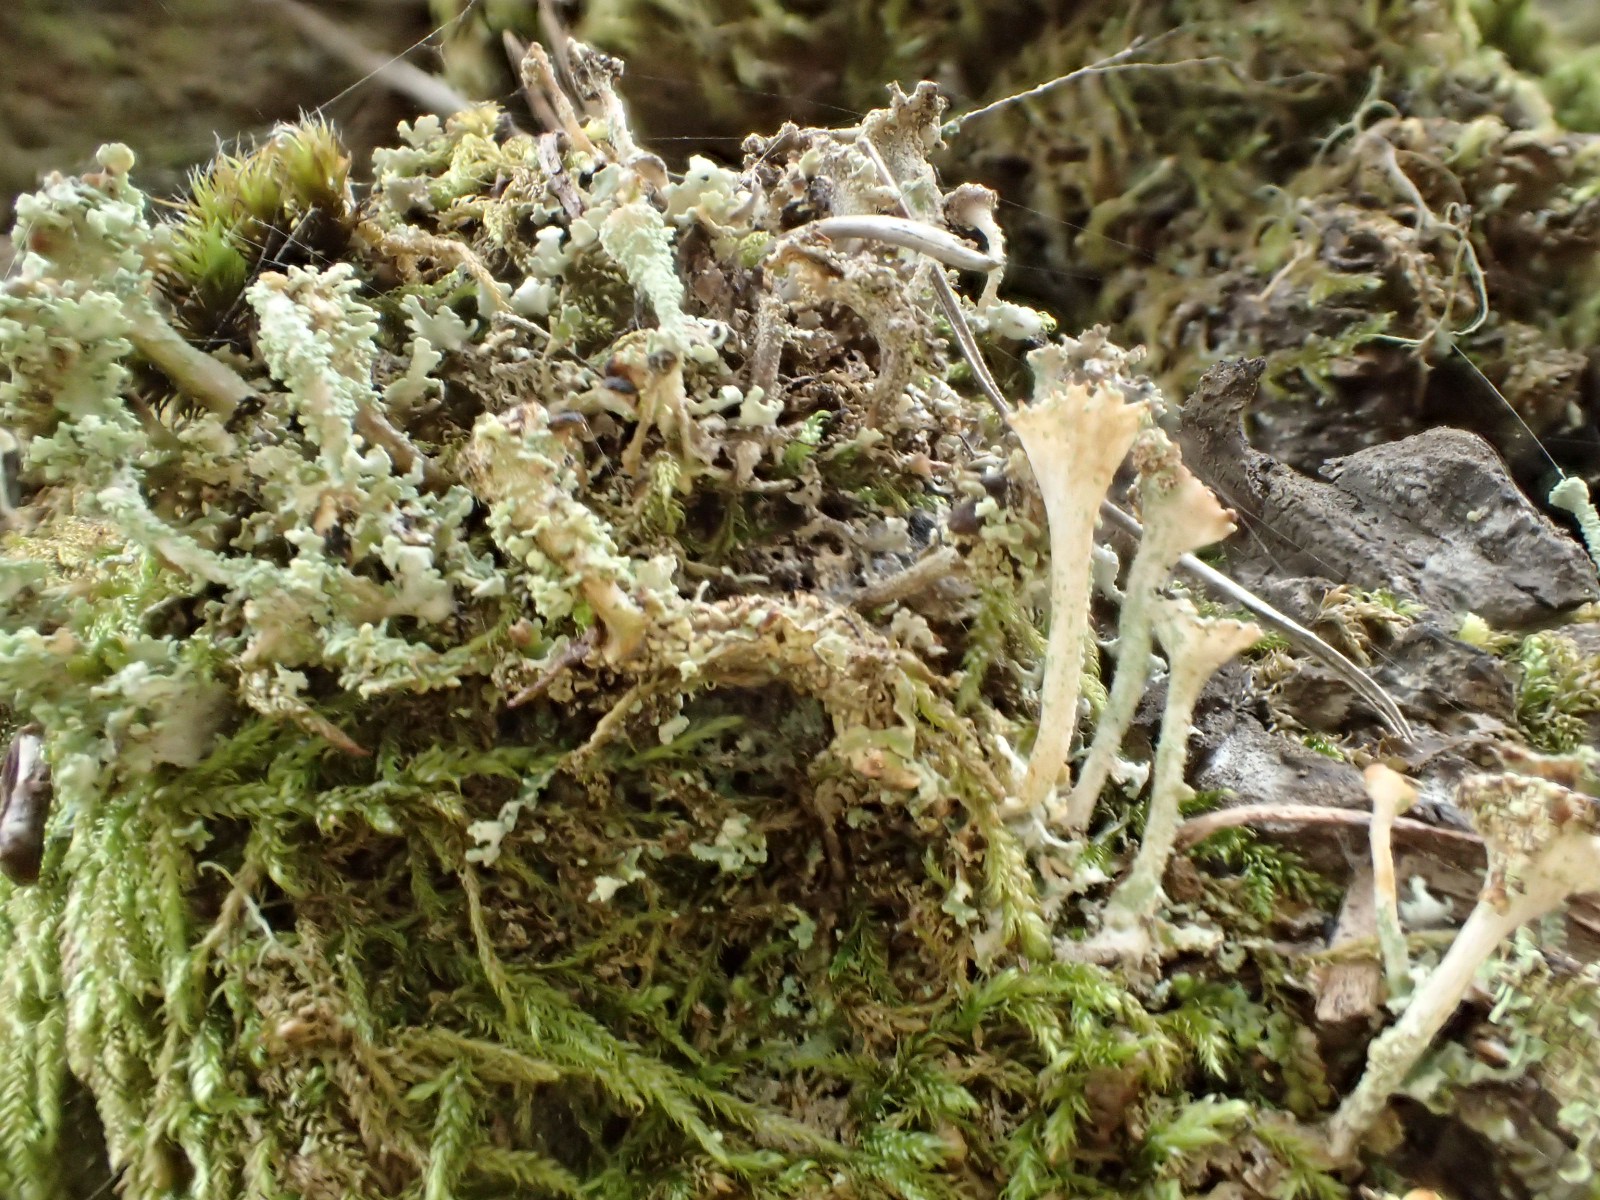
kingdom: Fungi
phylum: Ascomycota
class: Lecanoromycetes
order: Lecanorales
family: Cladoniaceae
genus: Cladonia
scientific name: Cladonia
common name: brungrøn bægerlav
